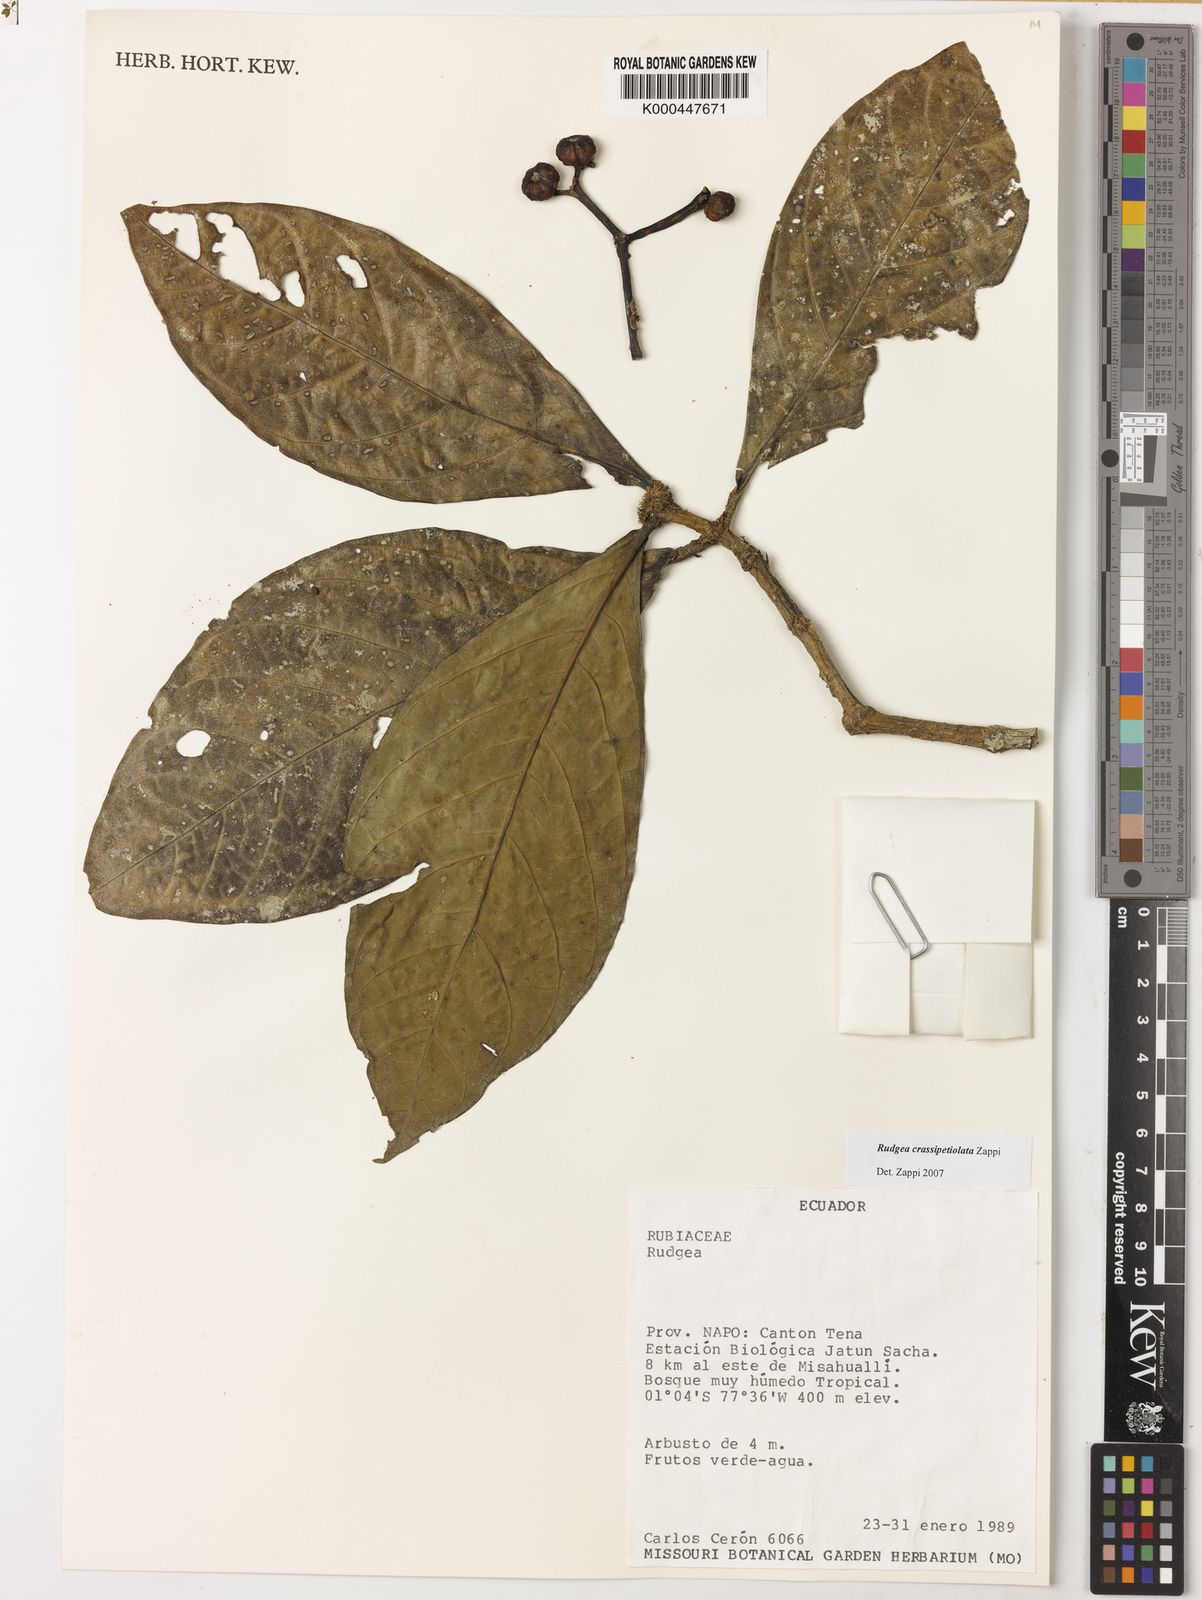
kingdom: Plantae
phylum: Tracheophyta
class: Magnoliopsida
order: Gentianales
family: Rubiaceae
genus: Rudgea
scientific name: Rudgea crassipetiolata
